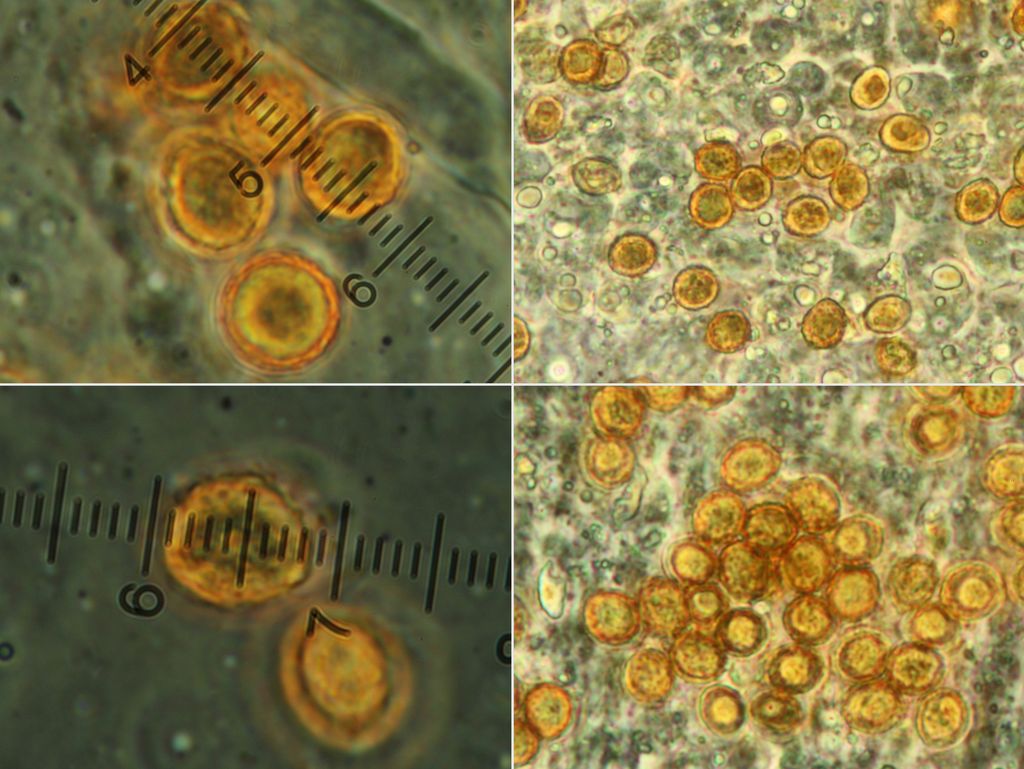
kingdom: Fungi
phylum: Basidiomycota
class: Agaricomycetes
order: Agaricales
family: Cortinariaceae
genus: Cortinarius
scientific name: Cortinarius balaustinus
